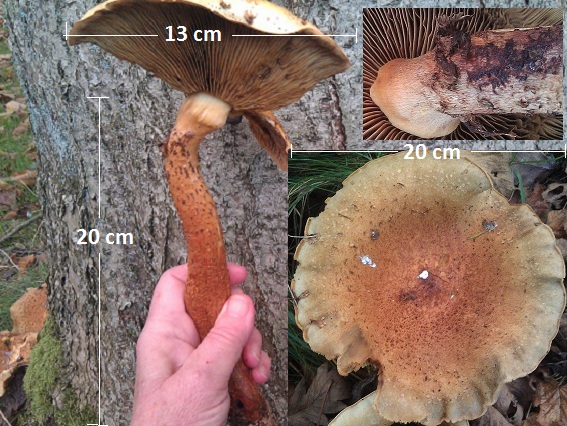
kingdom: Fungi
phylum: Basidiomycota
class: Agaricomycetes
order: Agaricales
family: Strophariaceae
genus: Pholiota
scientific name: Pholiota squarrosa
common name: krumskællet skælhat
